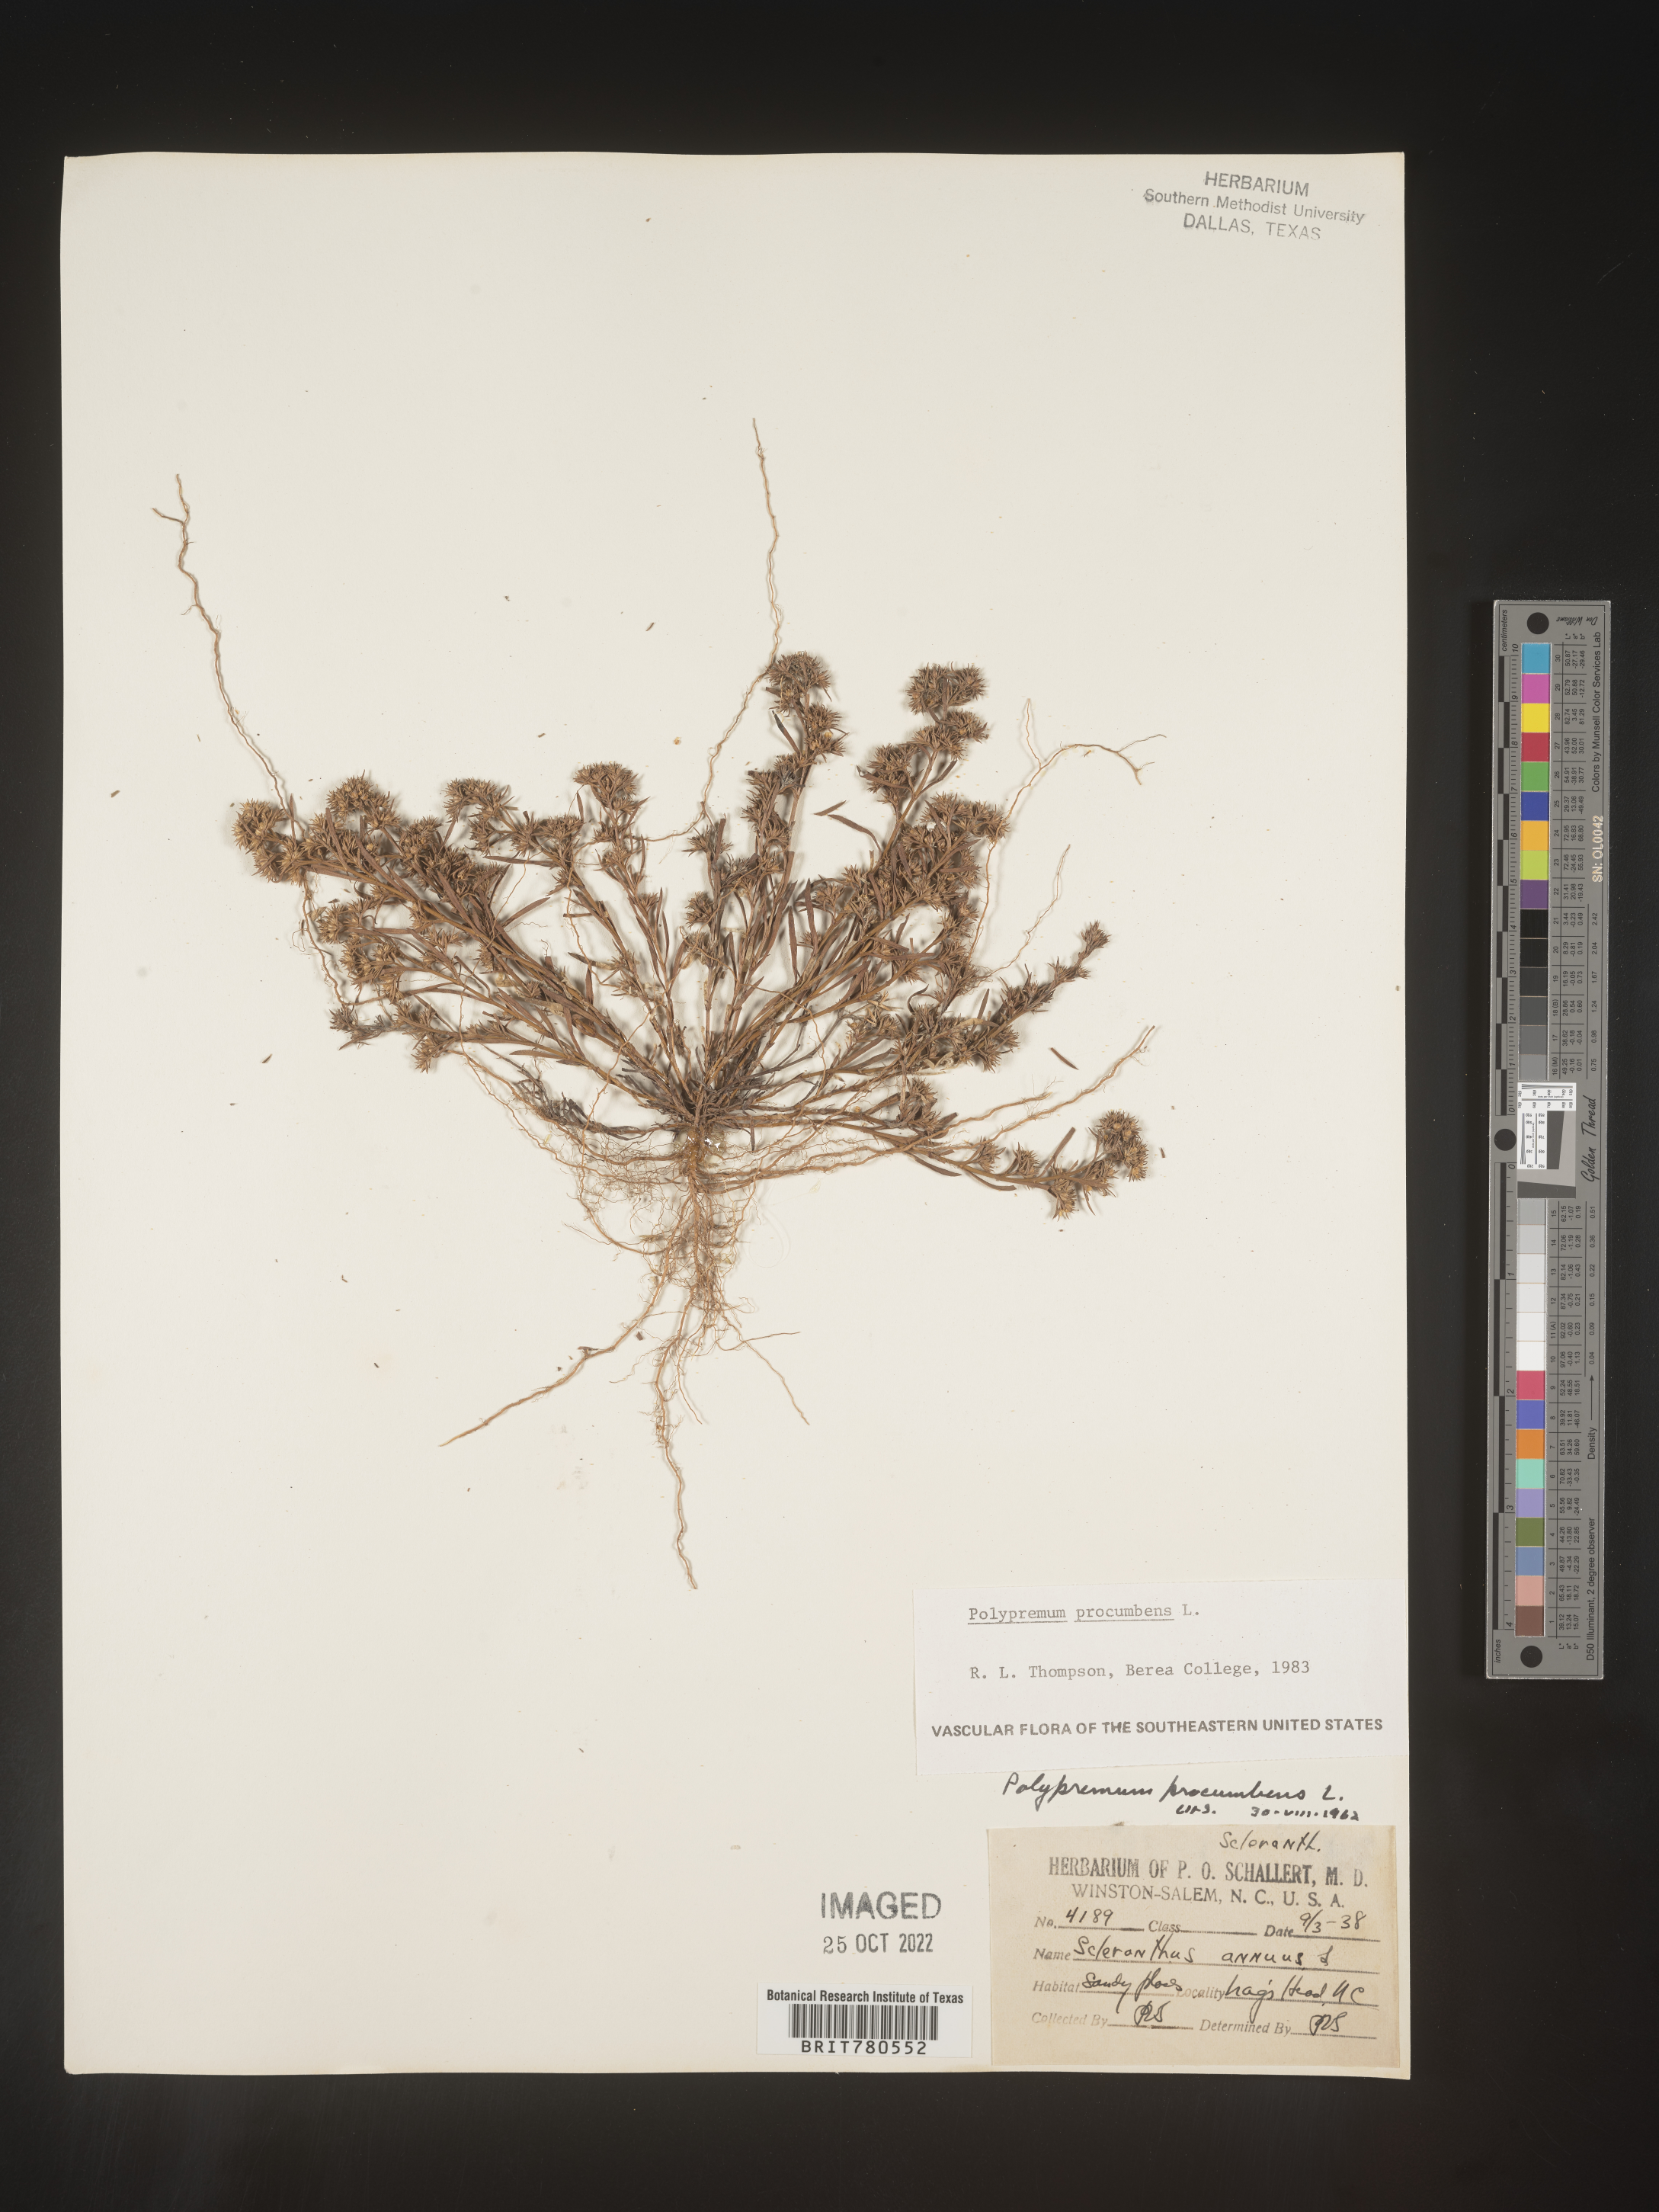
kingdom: Plantae
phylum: Tracheophyta
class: Magnoliopsida
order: Lamiales
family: Tetrachondraceae
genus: Polypremum
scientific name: Polypremum procumbens
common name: Juniper-leaf
